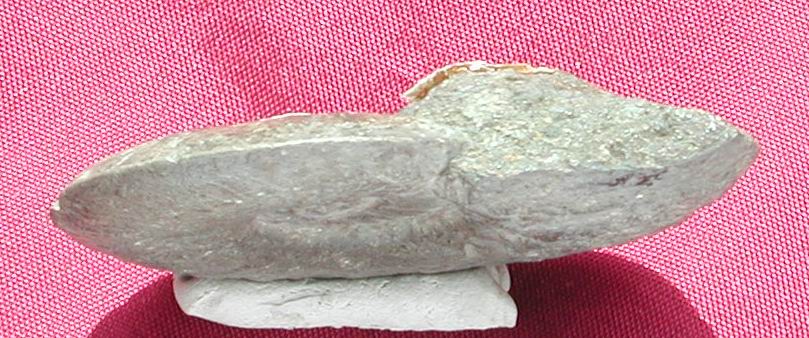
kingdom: Animalia
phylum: Mollusca
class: Cephalopoda
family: Hildoceratidae
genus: Pleydellia
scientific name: Pleydellia misera
